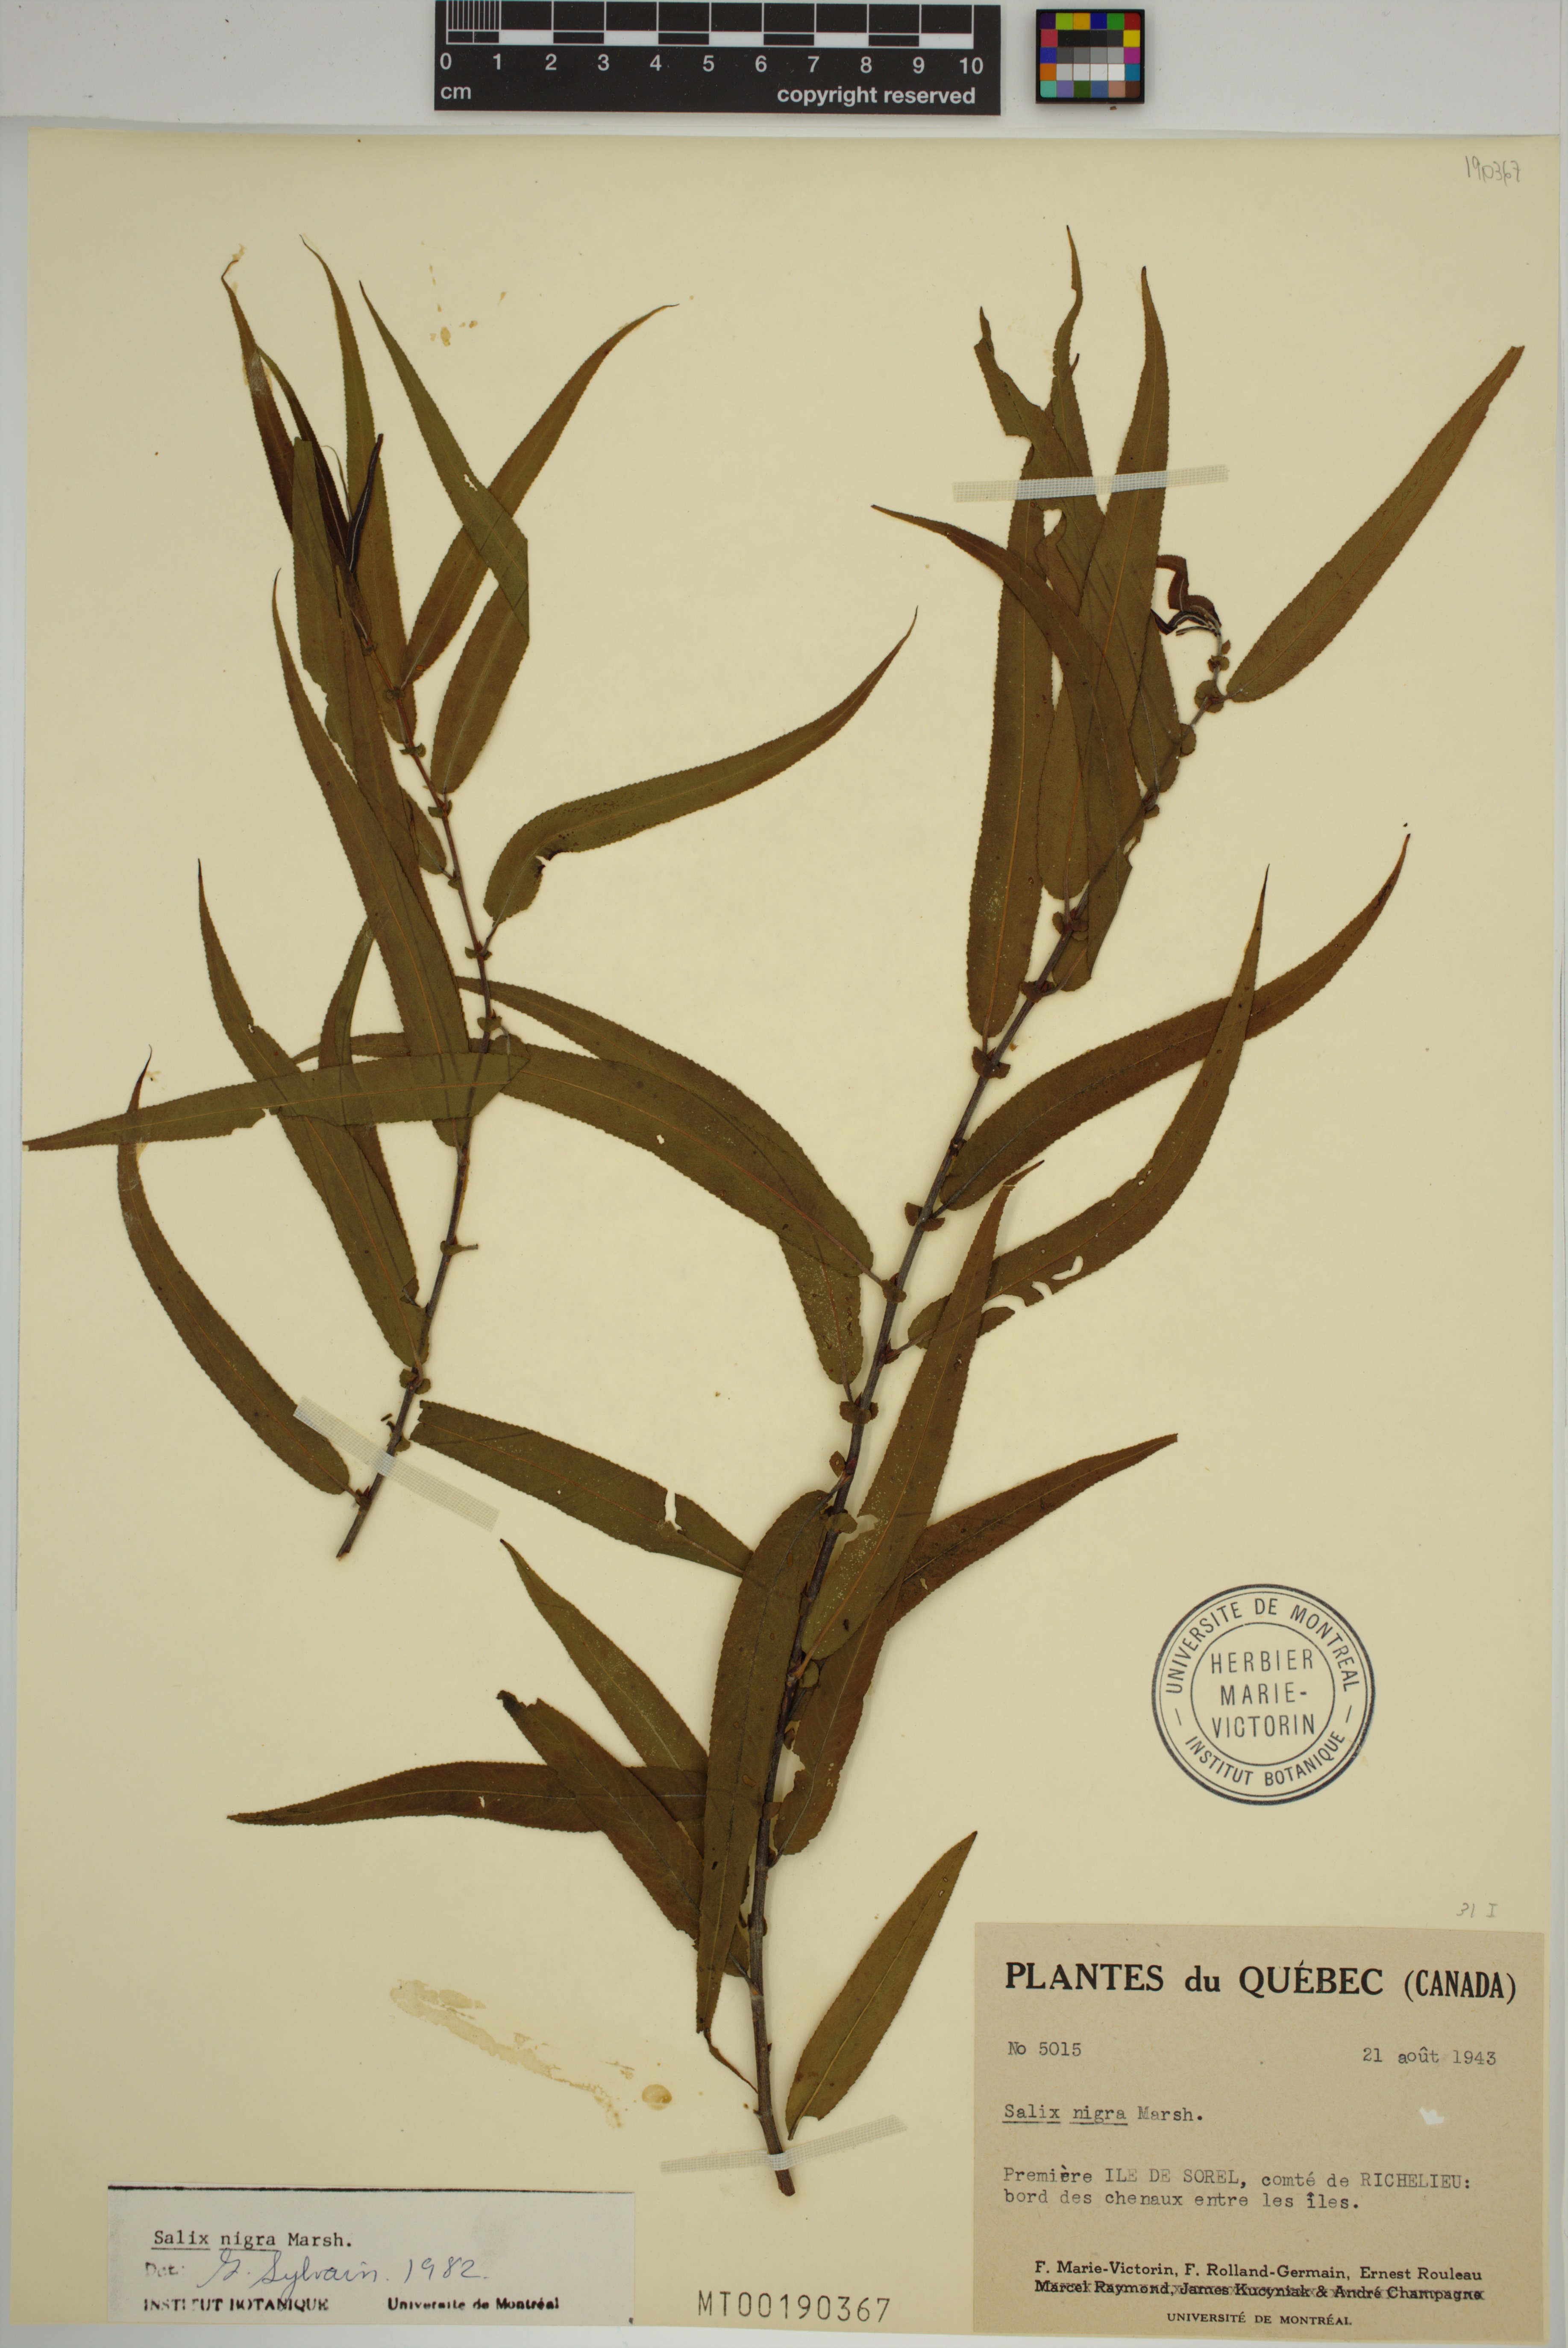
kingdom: Plantae
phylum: Tracheophyta
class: Magnoliopsida
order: Malpighiales
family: Salicaceae
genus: Salix
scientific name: Salix nigra
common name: Black willow
